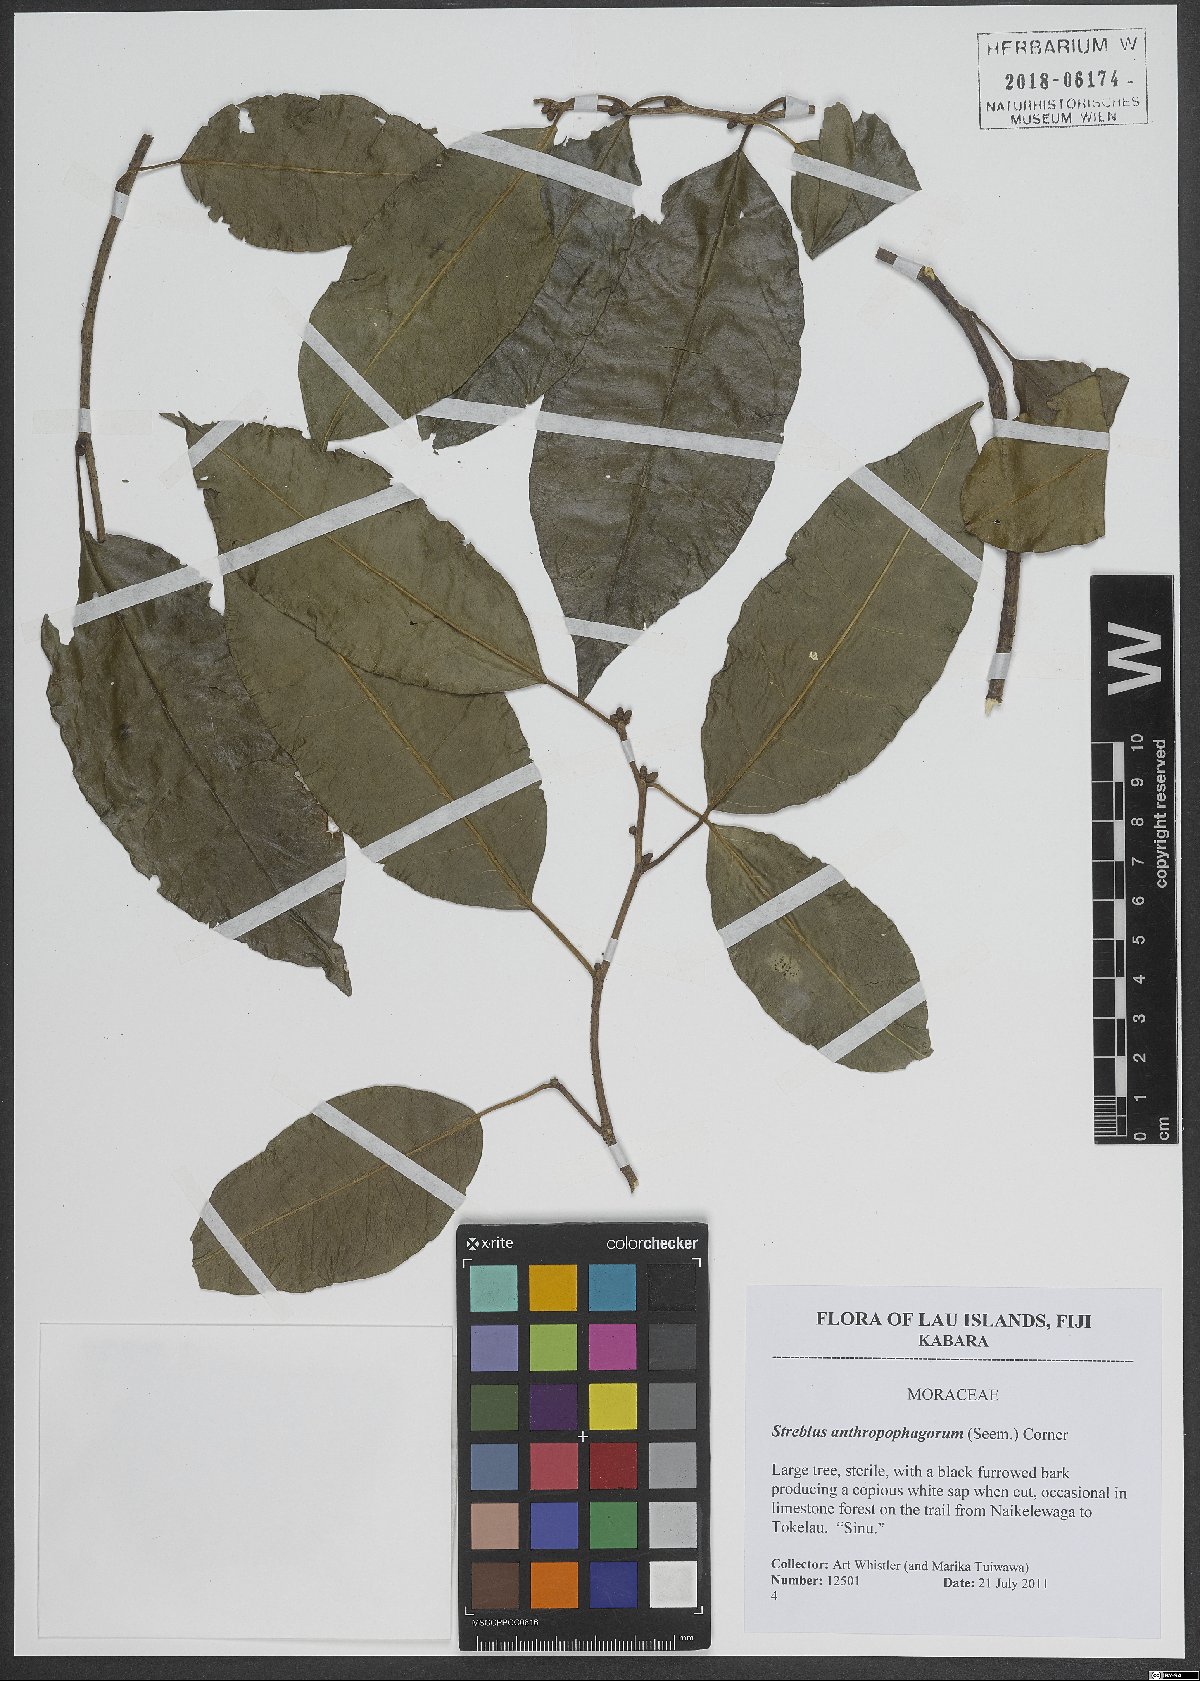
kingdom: Plantae
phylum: Tracheophyta
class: Magnoliopsida
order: Rosales
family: Moraceae
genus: Paratrophis
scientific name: Paratrophis anthropophagorum
